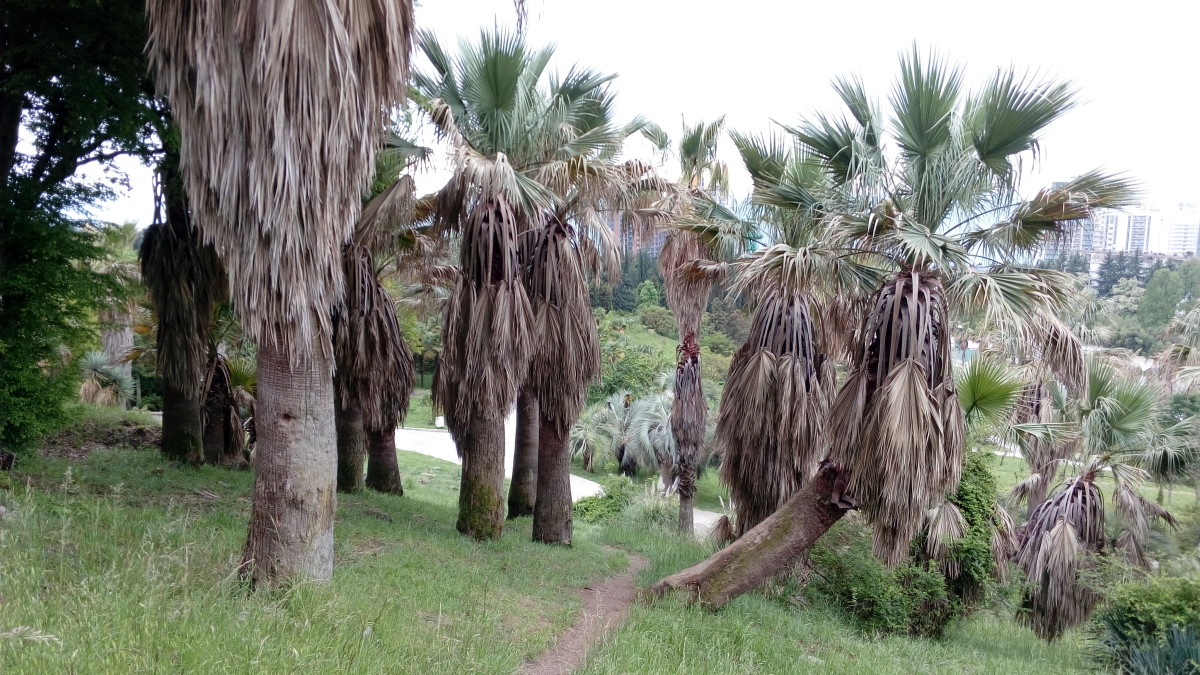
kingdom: Plantae
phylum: Tracheophyta
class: Liliopsida
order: Arecales
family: Arecaceae
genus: Washingtonia
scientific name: Washingtonia filifera
